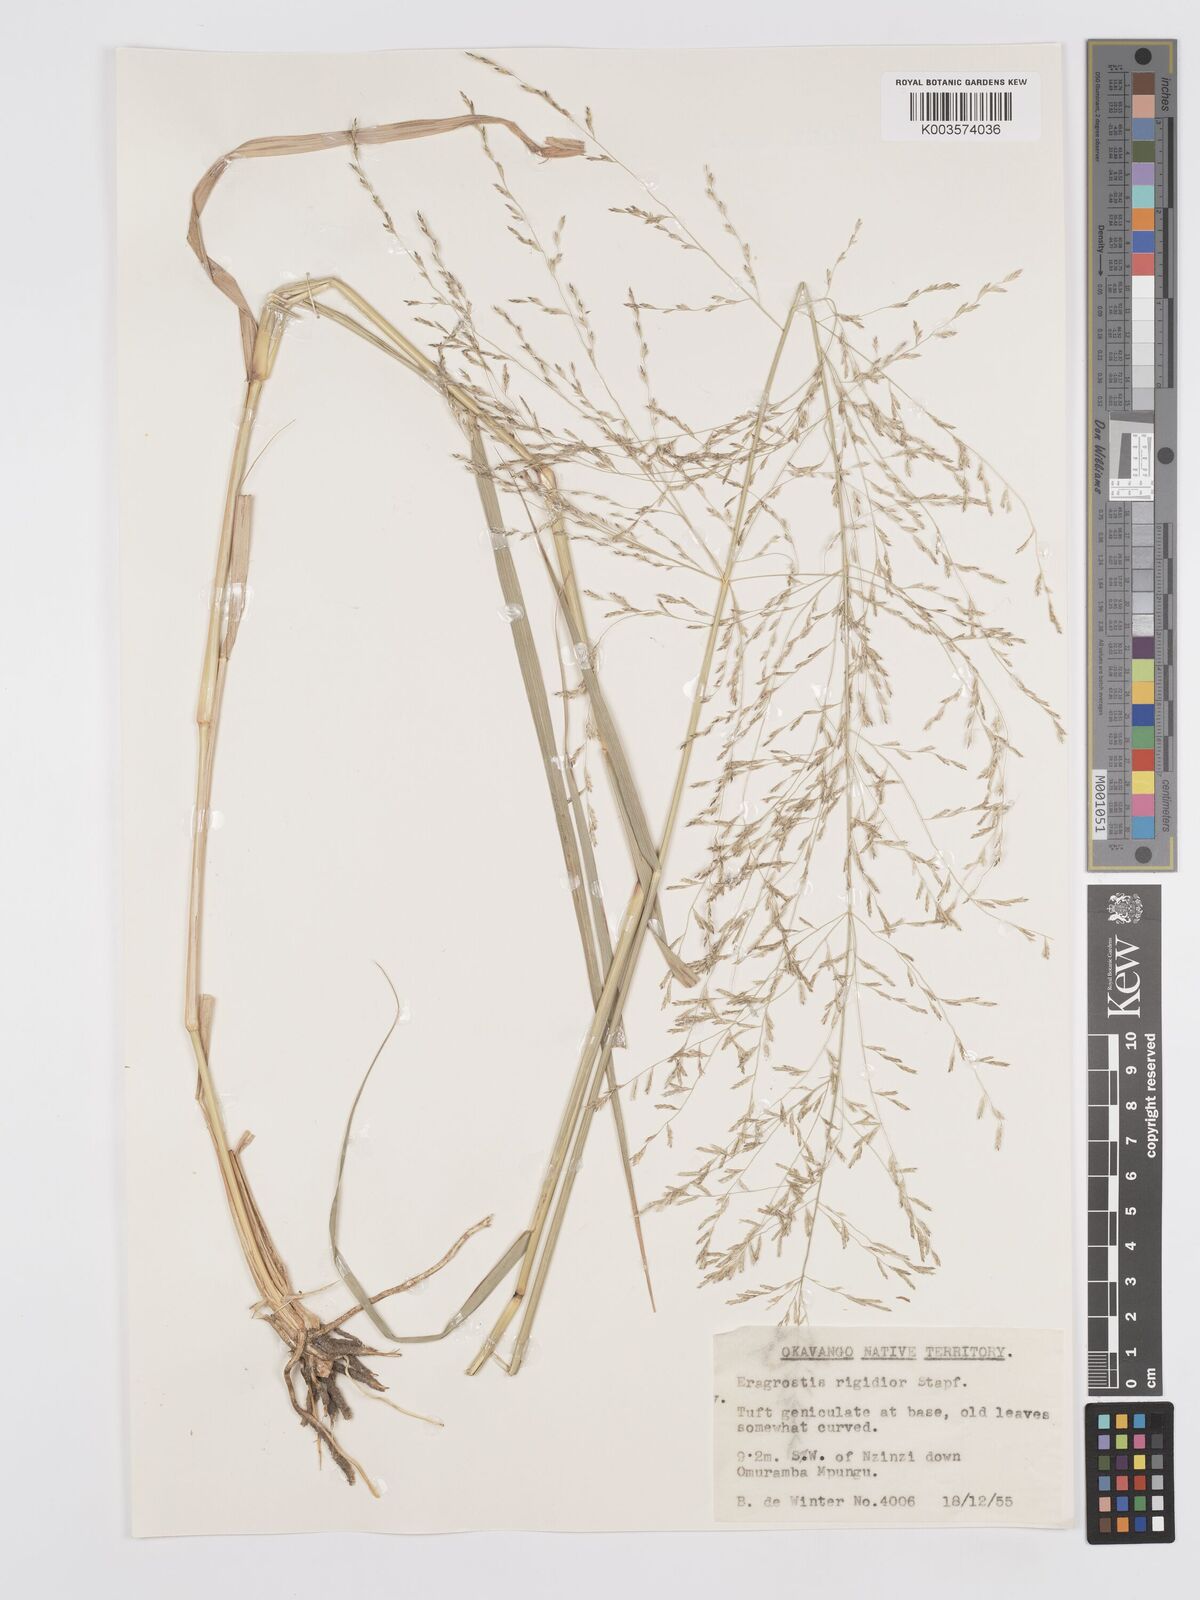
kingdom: Plantae
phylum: Tracheophyta
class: Liliopsida
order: Poales
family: Poaceae
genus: Eragrostis
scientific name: Eragrostis cylindriflora
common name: Cylinderflower lovegrass
